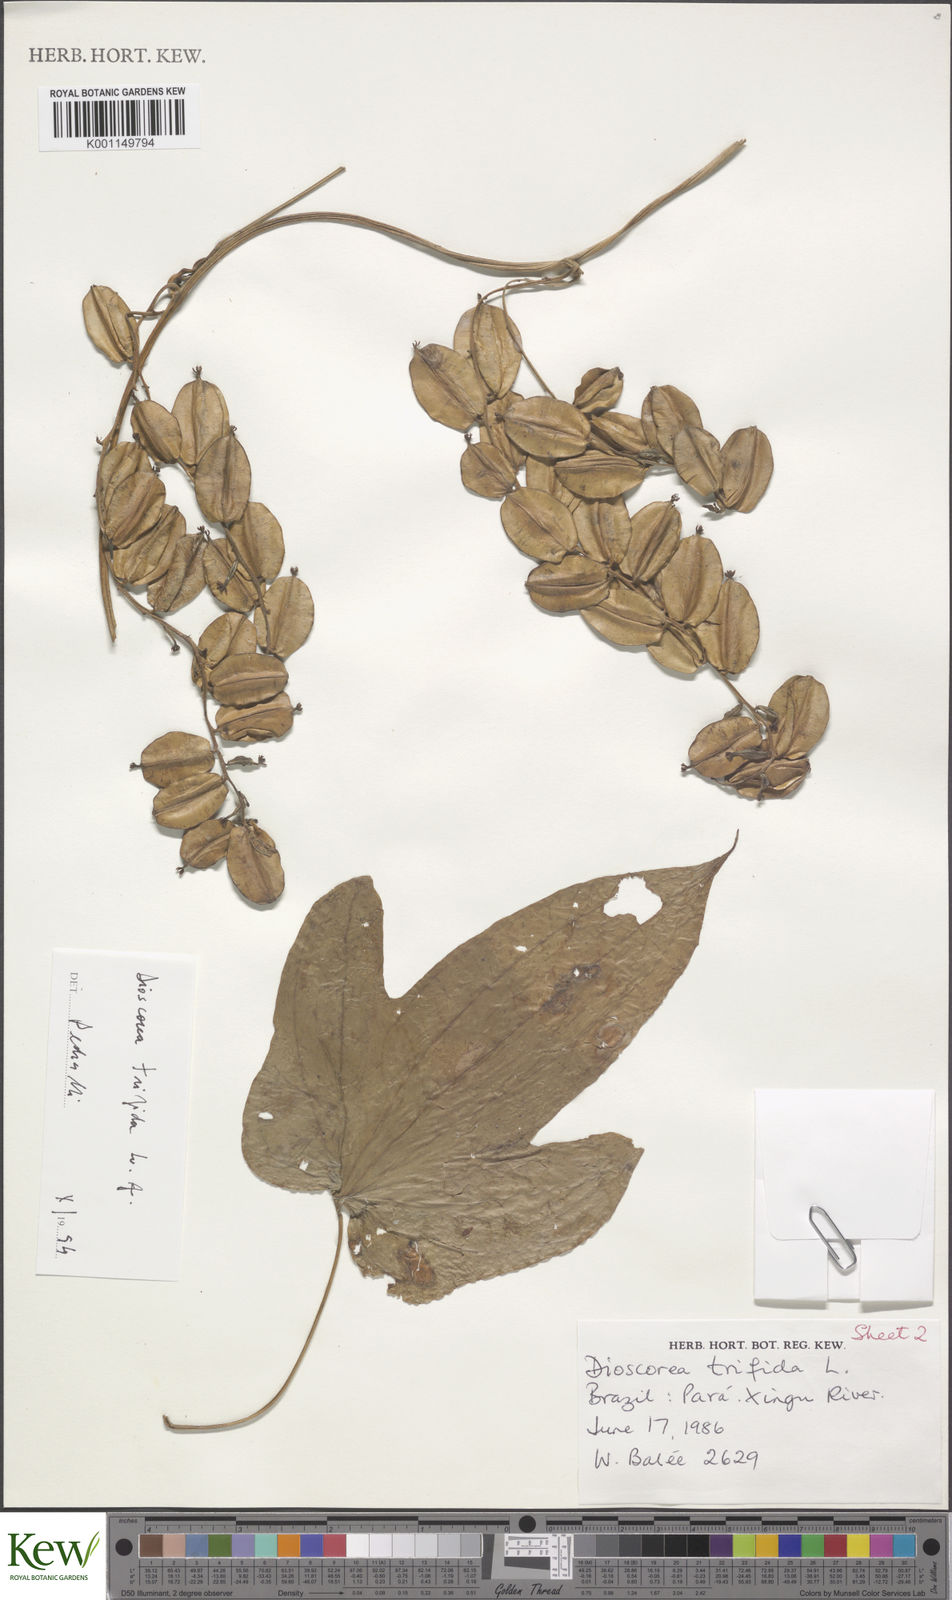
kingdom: Plantae
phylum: Tracheophyta
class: Liliopsida
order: Dioscoreales
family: Dioscoreaceae
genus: Dioscorea
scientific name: Dioscorea trifida
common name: Cush-cush
